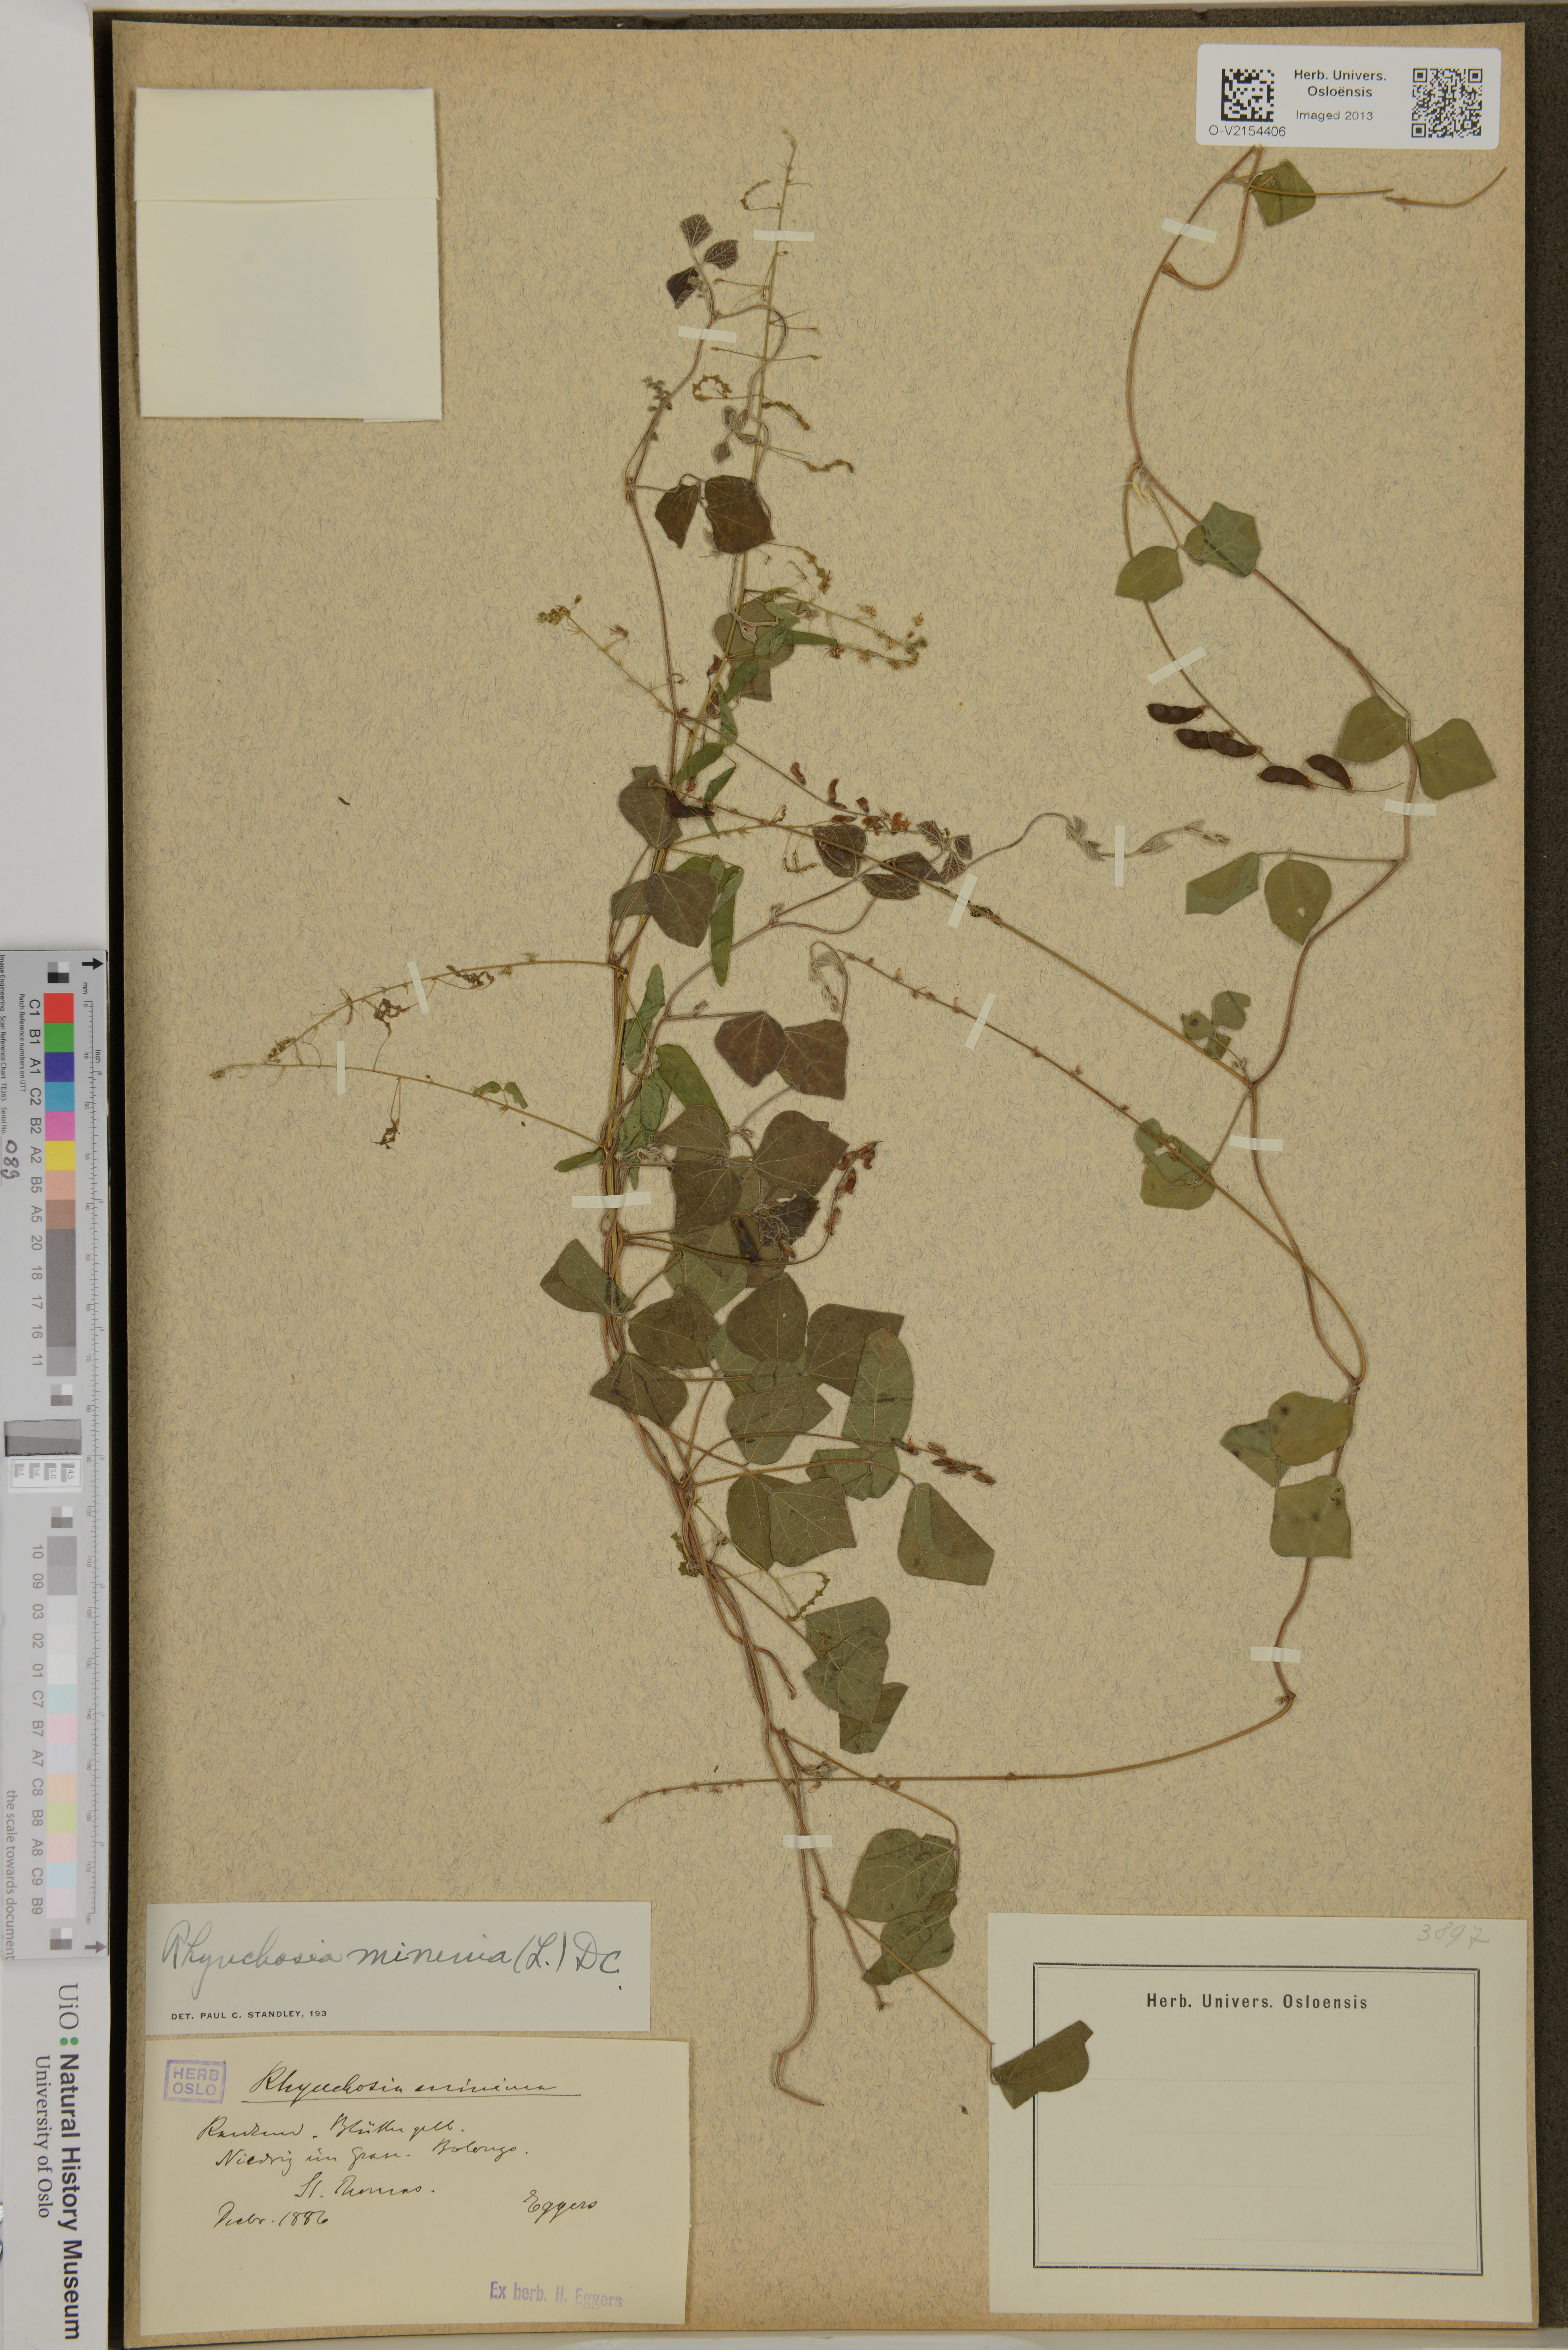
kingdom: Plantae
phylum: Tracheophyta
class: Magnoliopsida
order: Fabales
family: Fabaceae
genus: Rhynchosia
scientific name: Rhynchosia minima
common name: Least snoutbean
